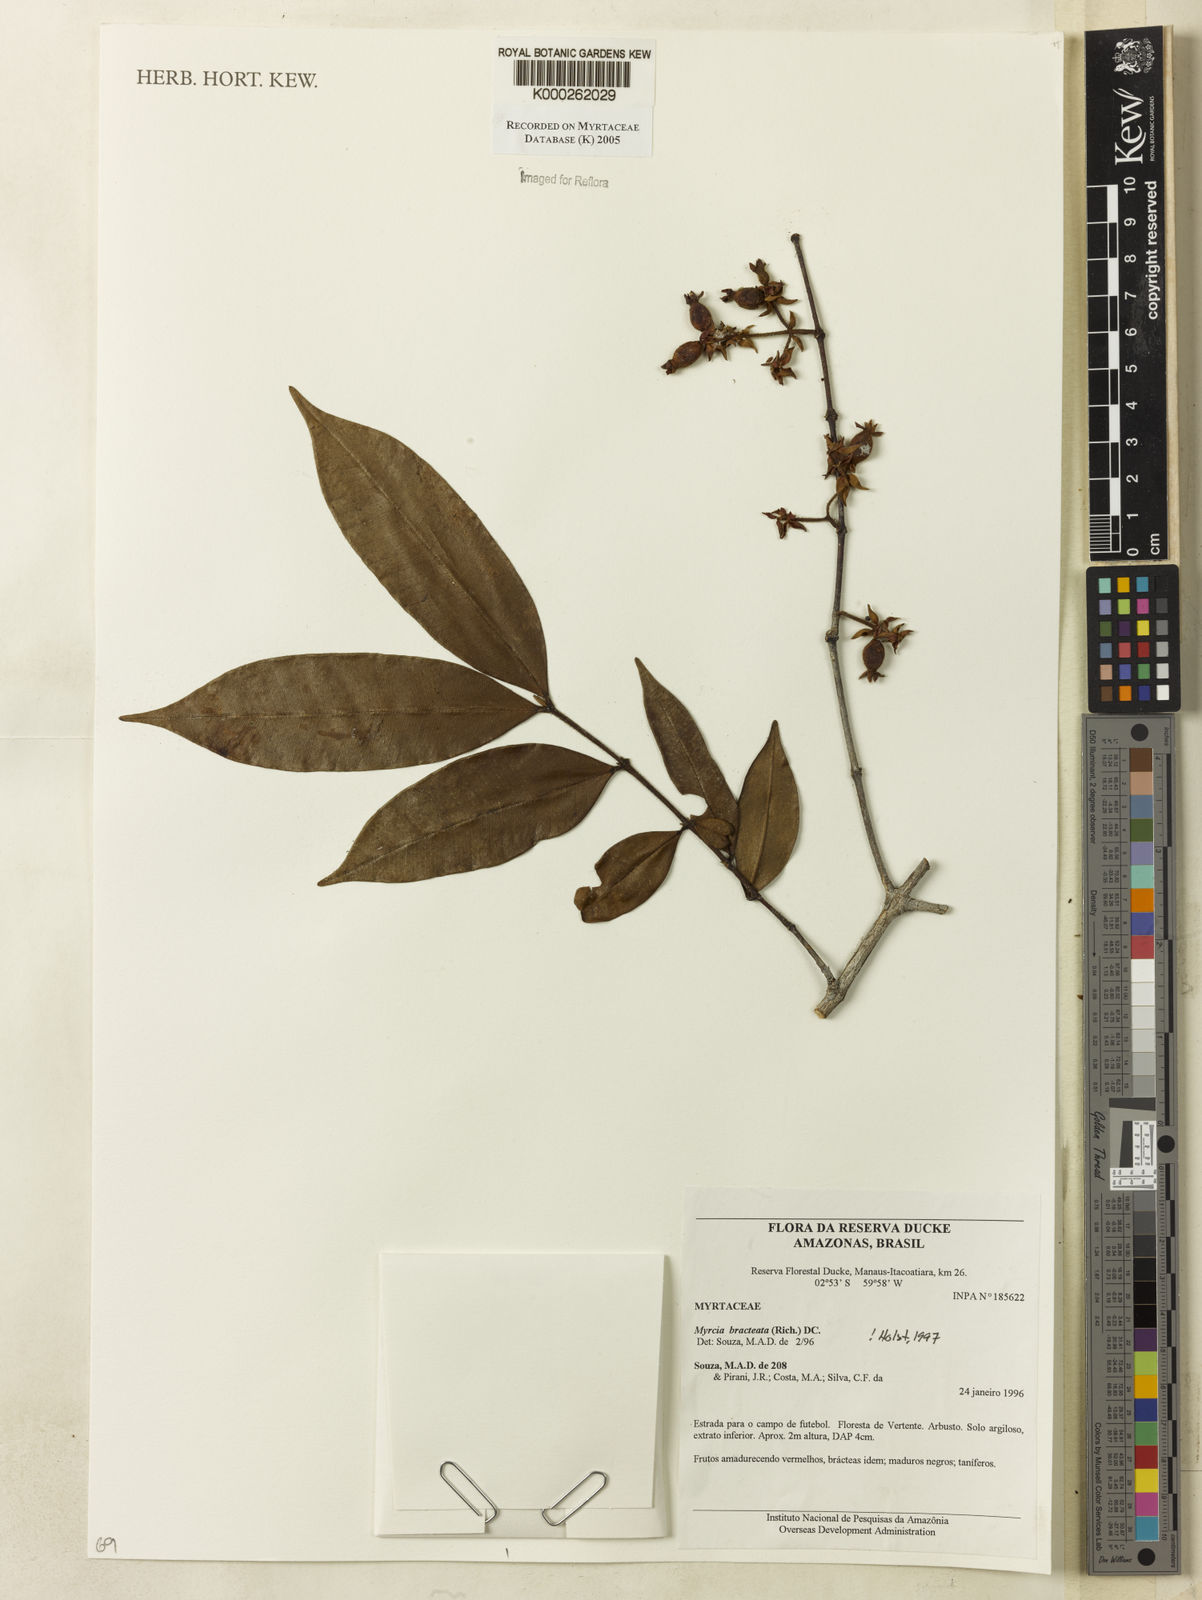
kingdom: Plantae
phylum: Tracheophyta
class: Magnoliopsida
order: Myrtales
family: Myrtaceae
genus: Myrcia
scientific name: Myrcia bracteata
